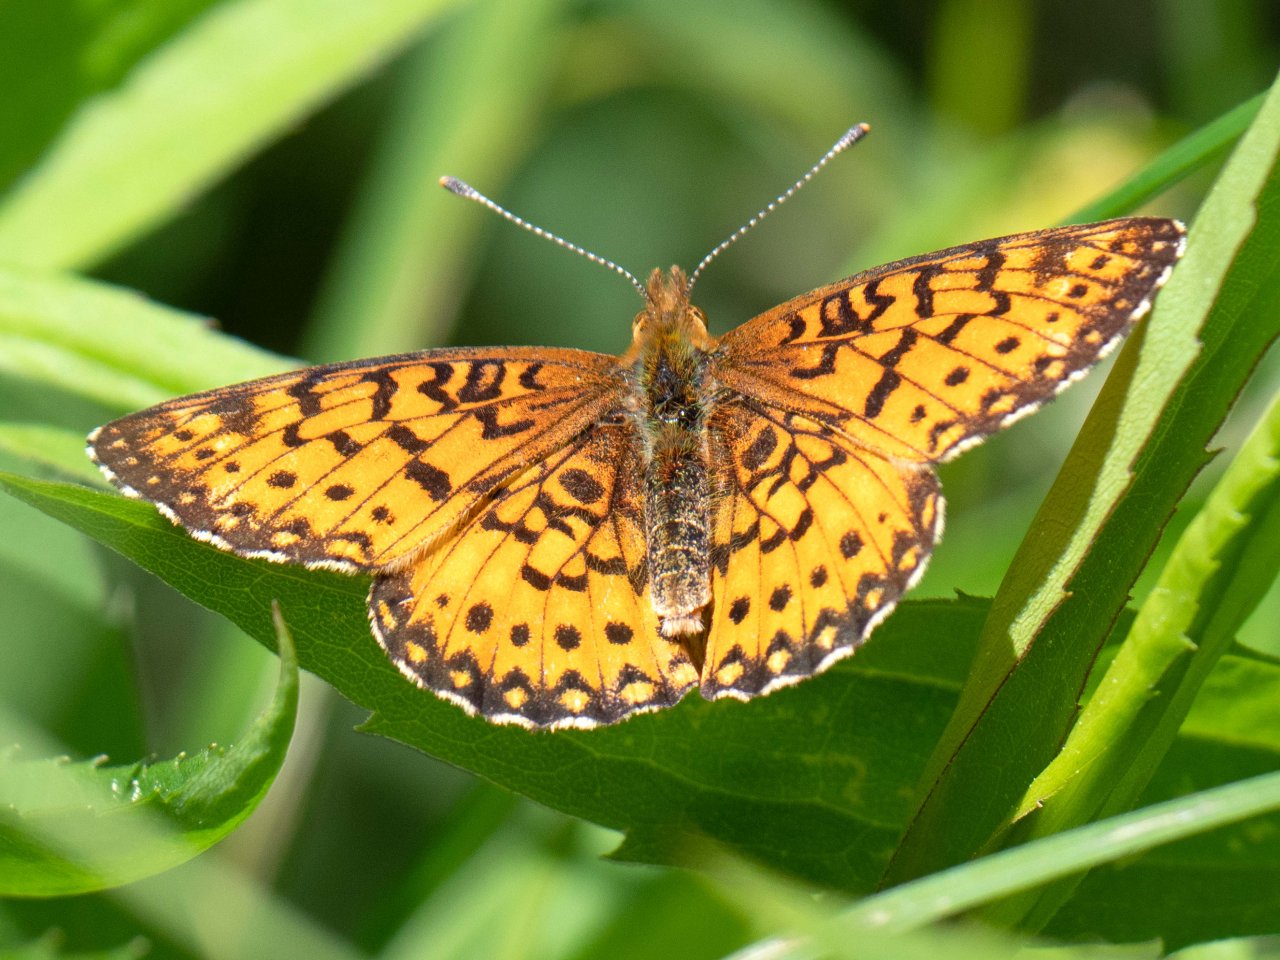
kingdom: Animalia
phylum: Arthropoda
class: Insecta
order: Lepidoptera
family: Nymphalidae
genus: Boloria
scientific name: Boloria selene
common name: Silver-bordered Fritillary
